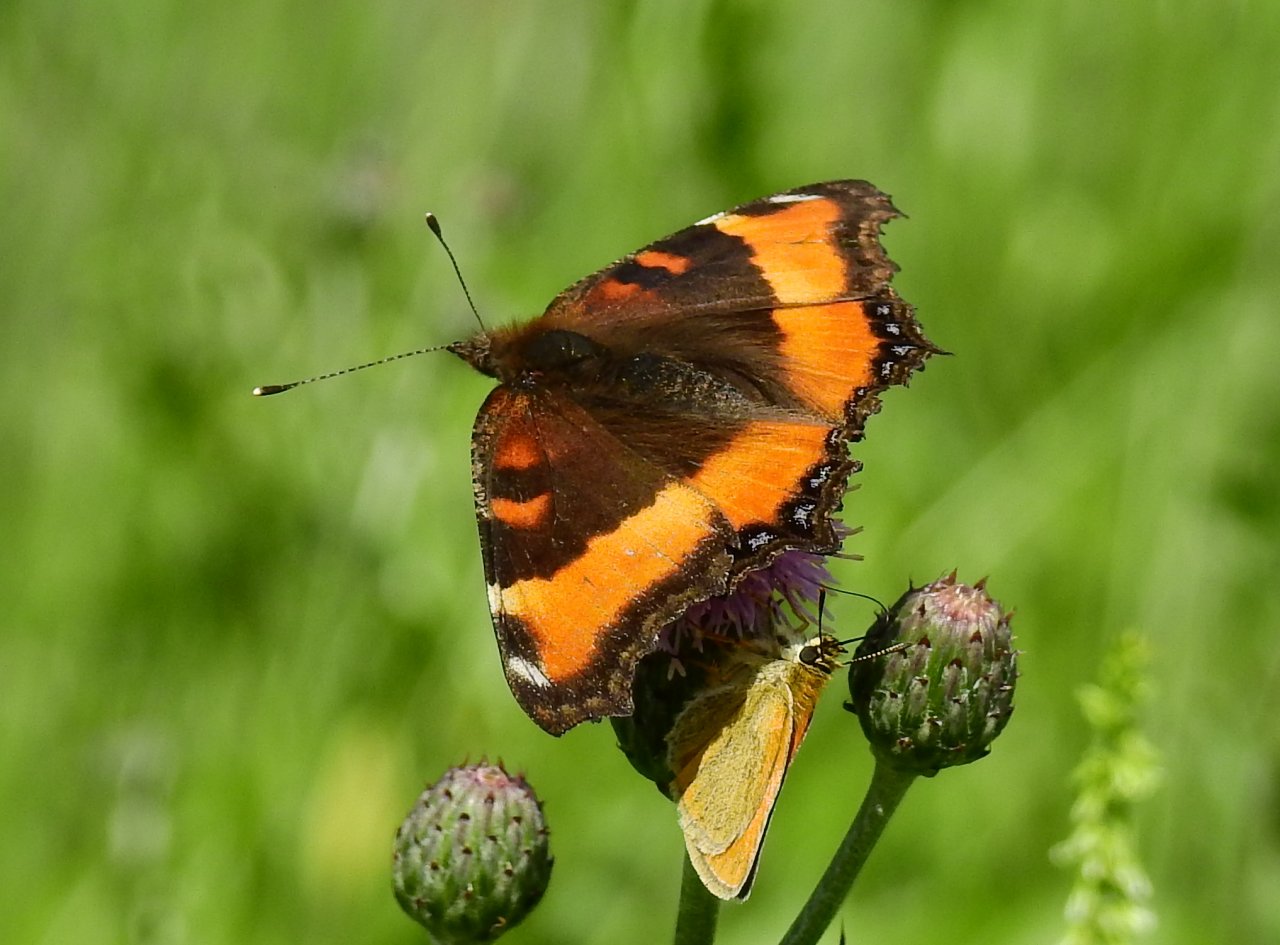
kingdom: Animalia
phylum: Arthropoda
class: Insecta
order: Lepidoptera
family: Nymphalidae
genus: Aglais
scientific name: Aglais milberti
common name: Milbert's Tortoiseshell
